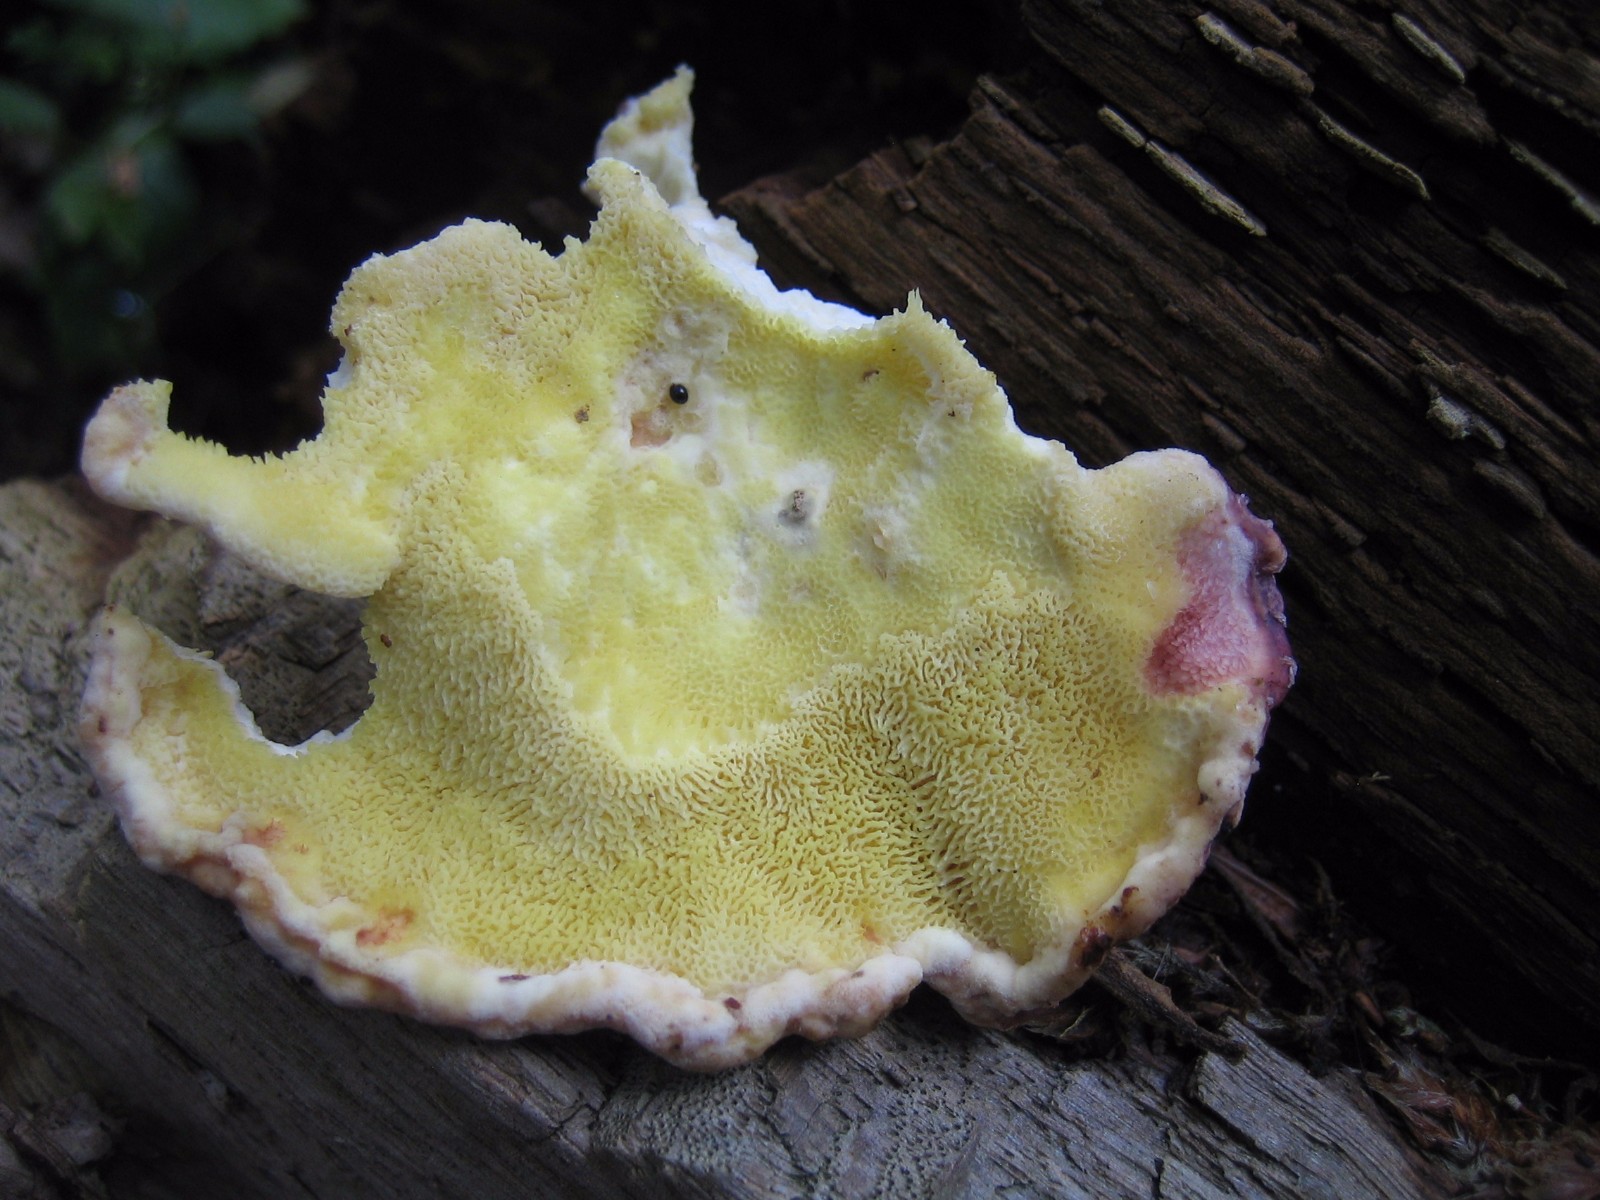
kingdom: Fungi
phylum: Basidiomycota
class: Agaricomycetes
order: Polyporales
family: Laetiporaceae
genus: Laetiporus
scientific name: Laetiporus
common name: svovlporesvamp
